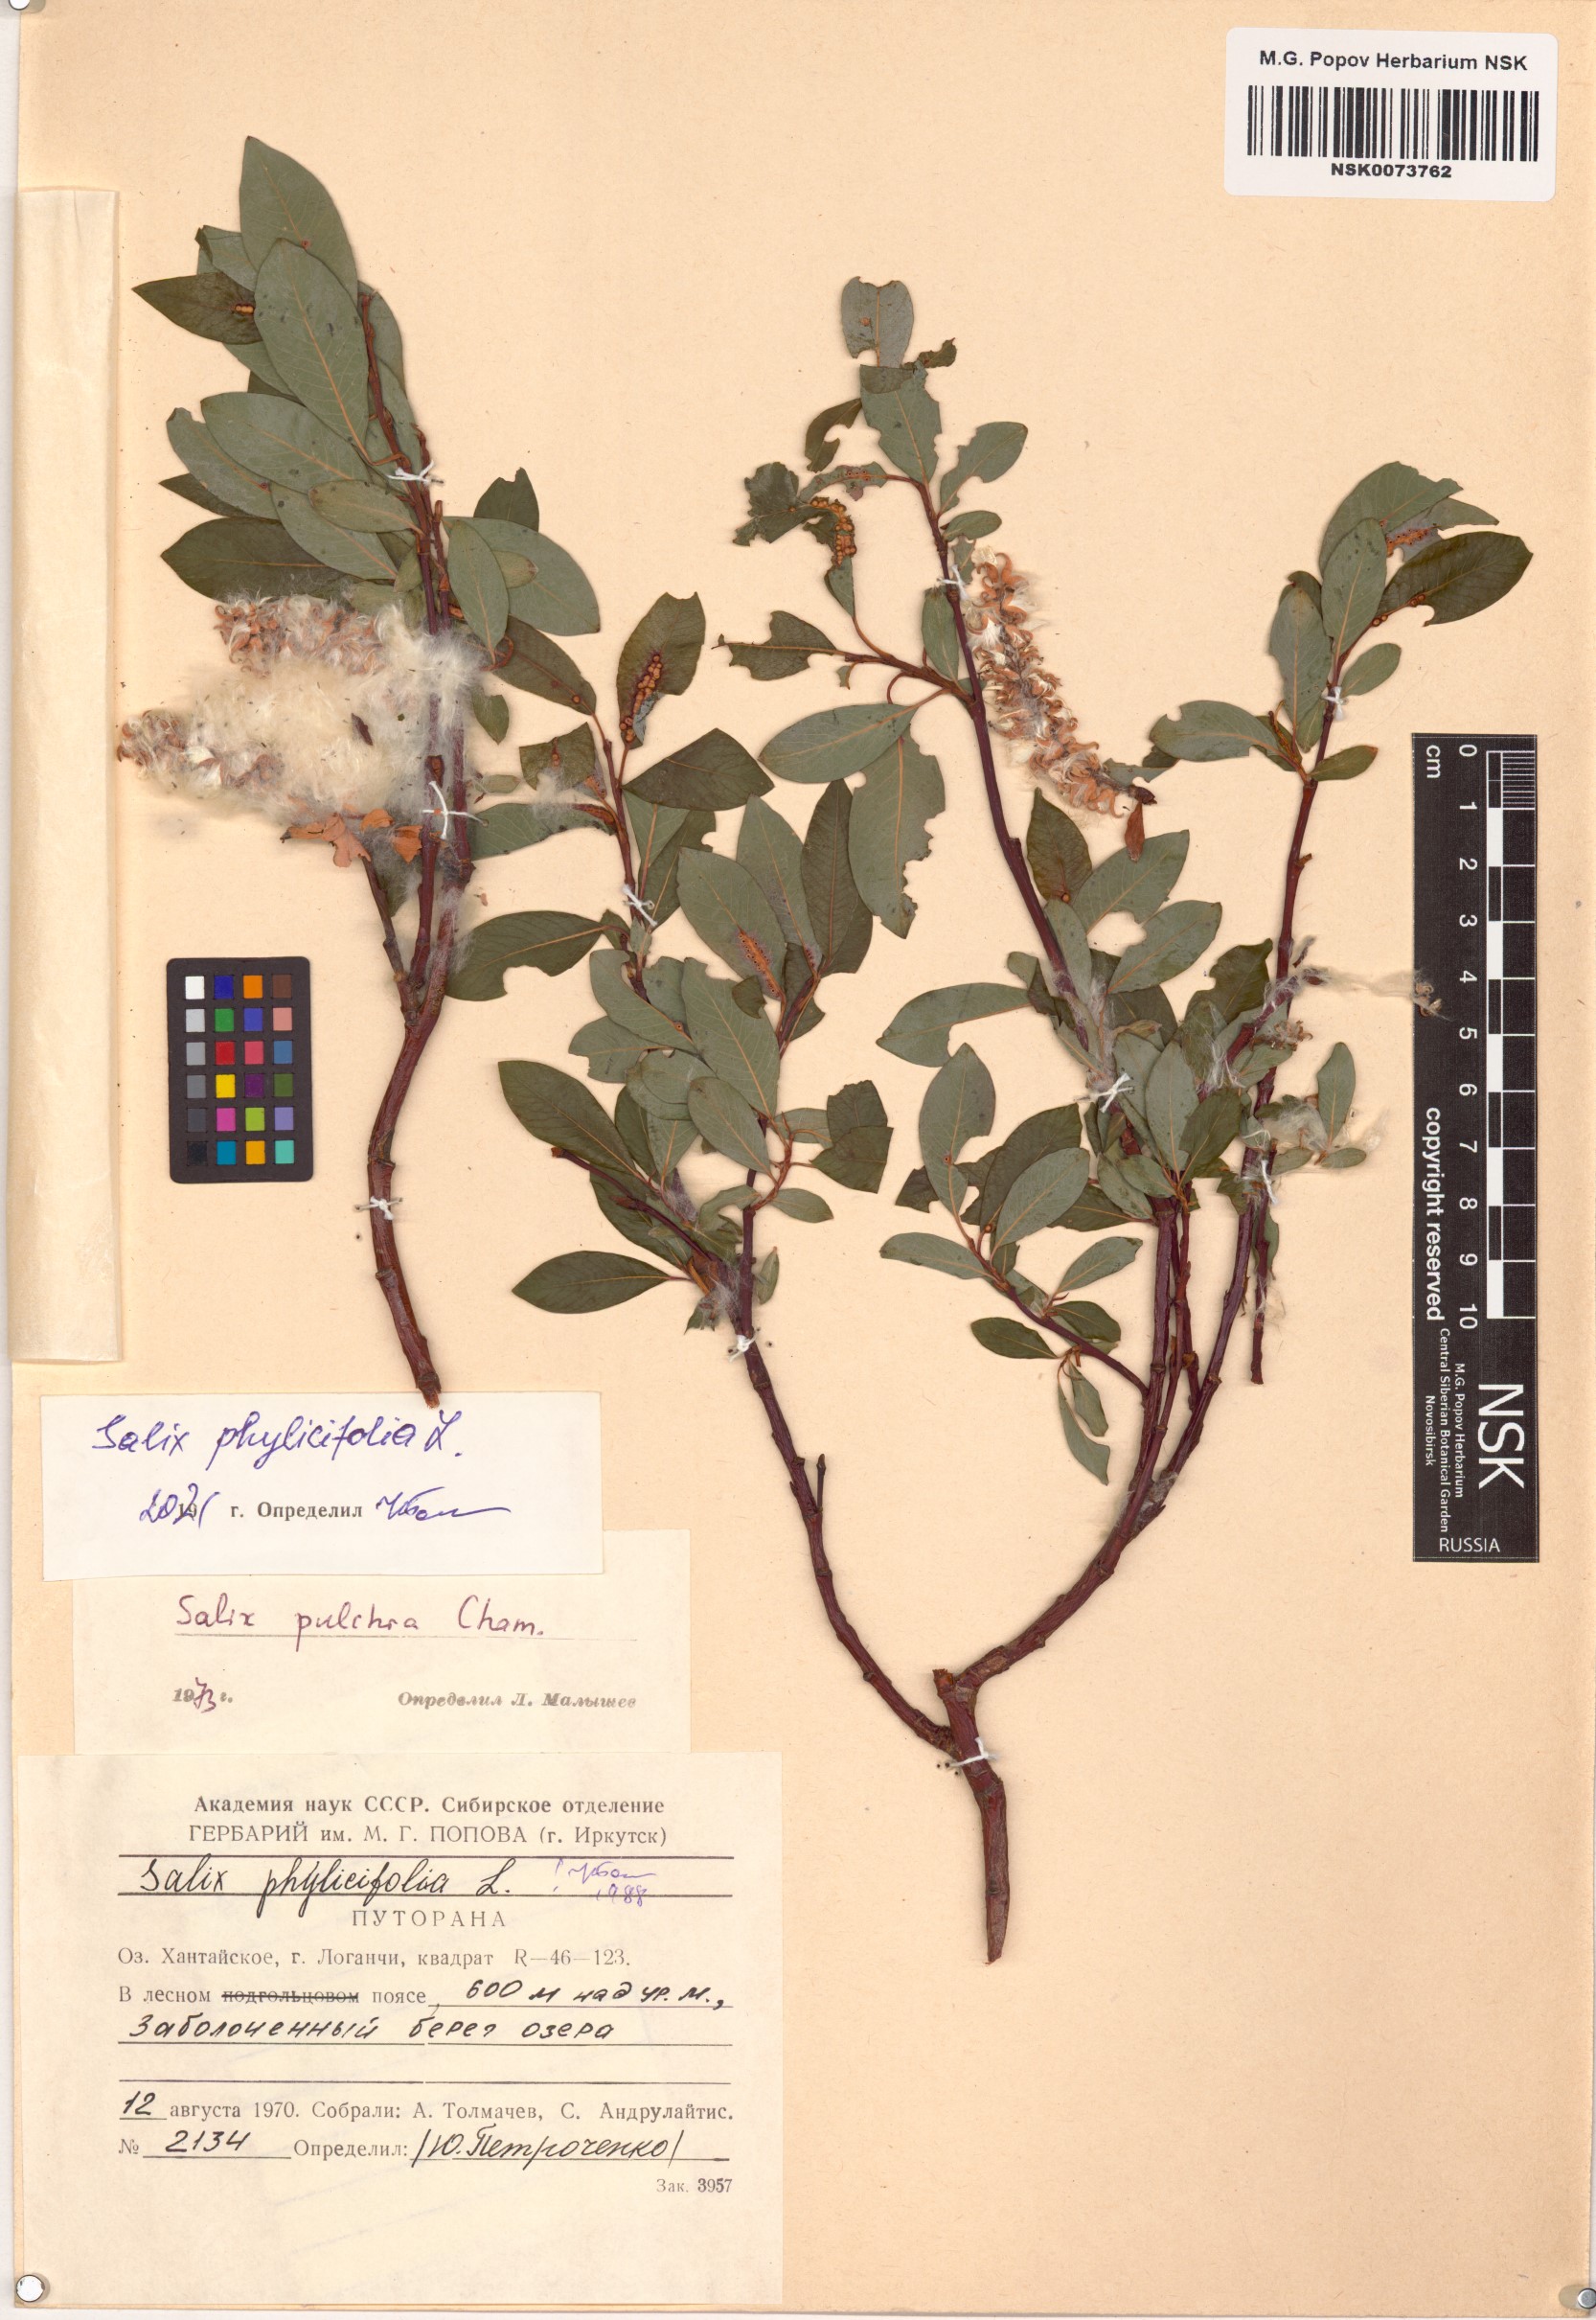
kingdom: Plantae
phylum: Tracheophyta
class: Magnoliopsida
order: Malpighiales
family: Salicaceae
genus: Salix
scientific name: Salix phylicifolia
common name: Tea-leaved willow
